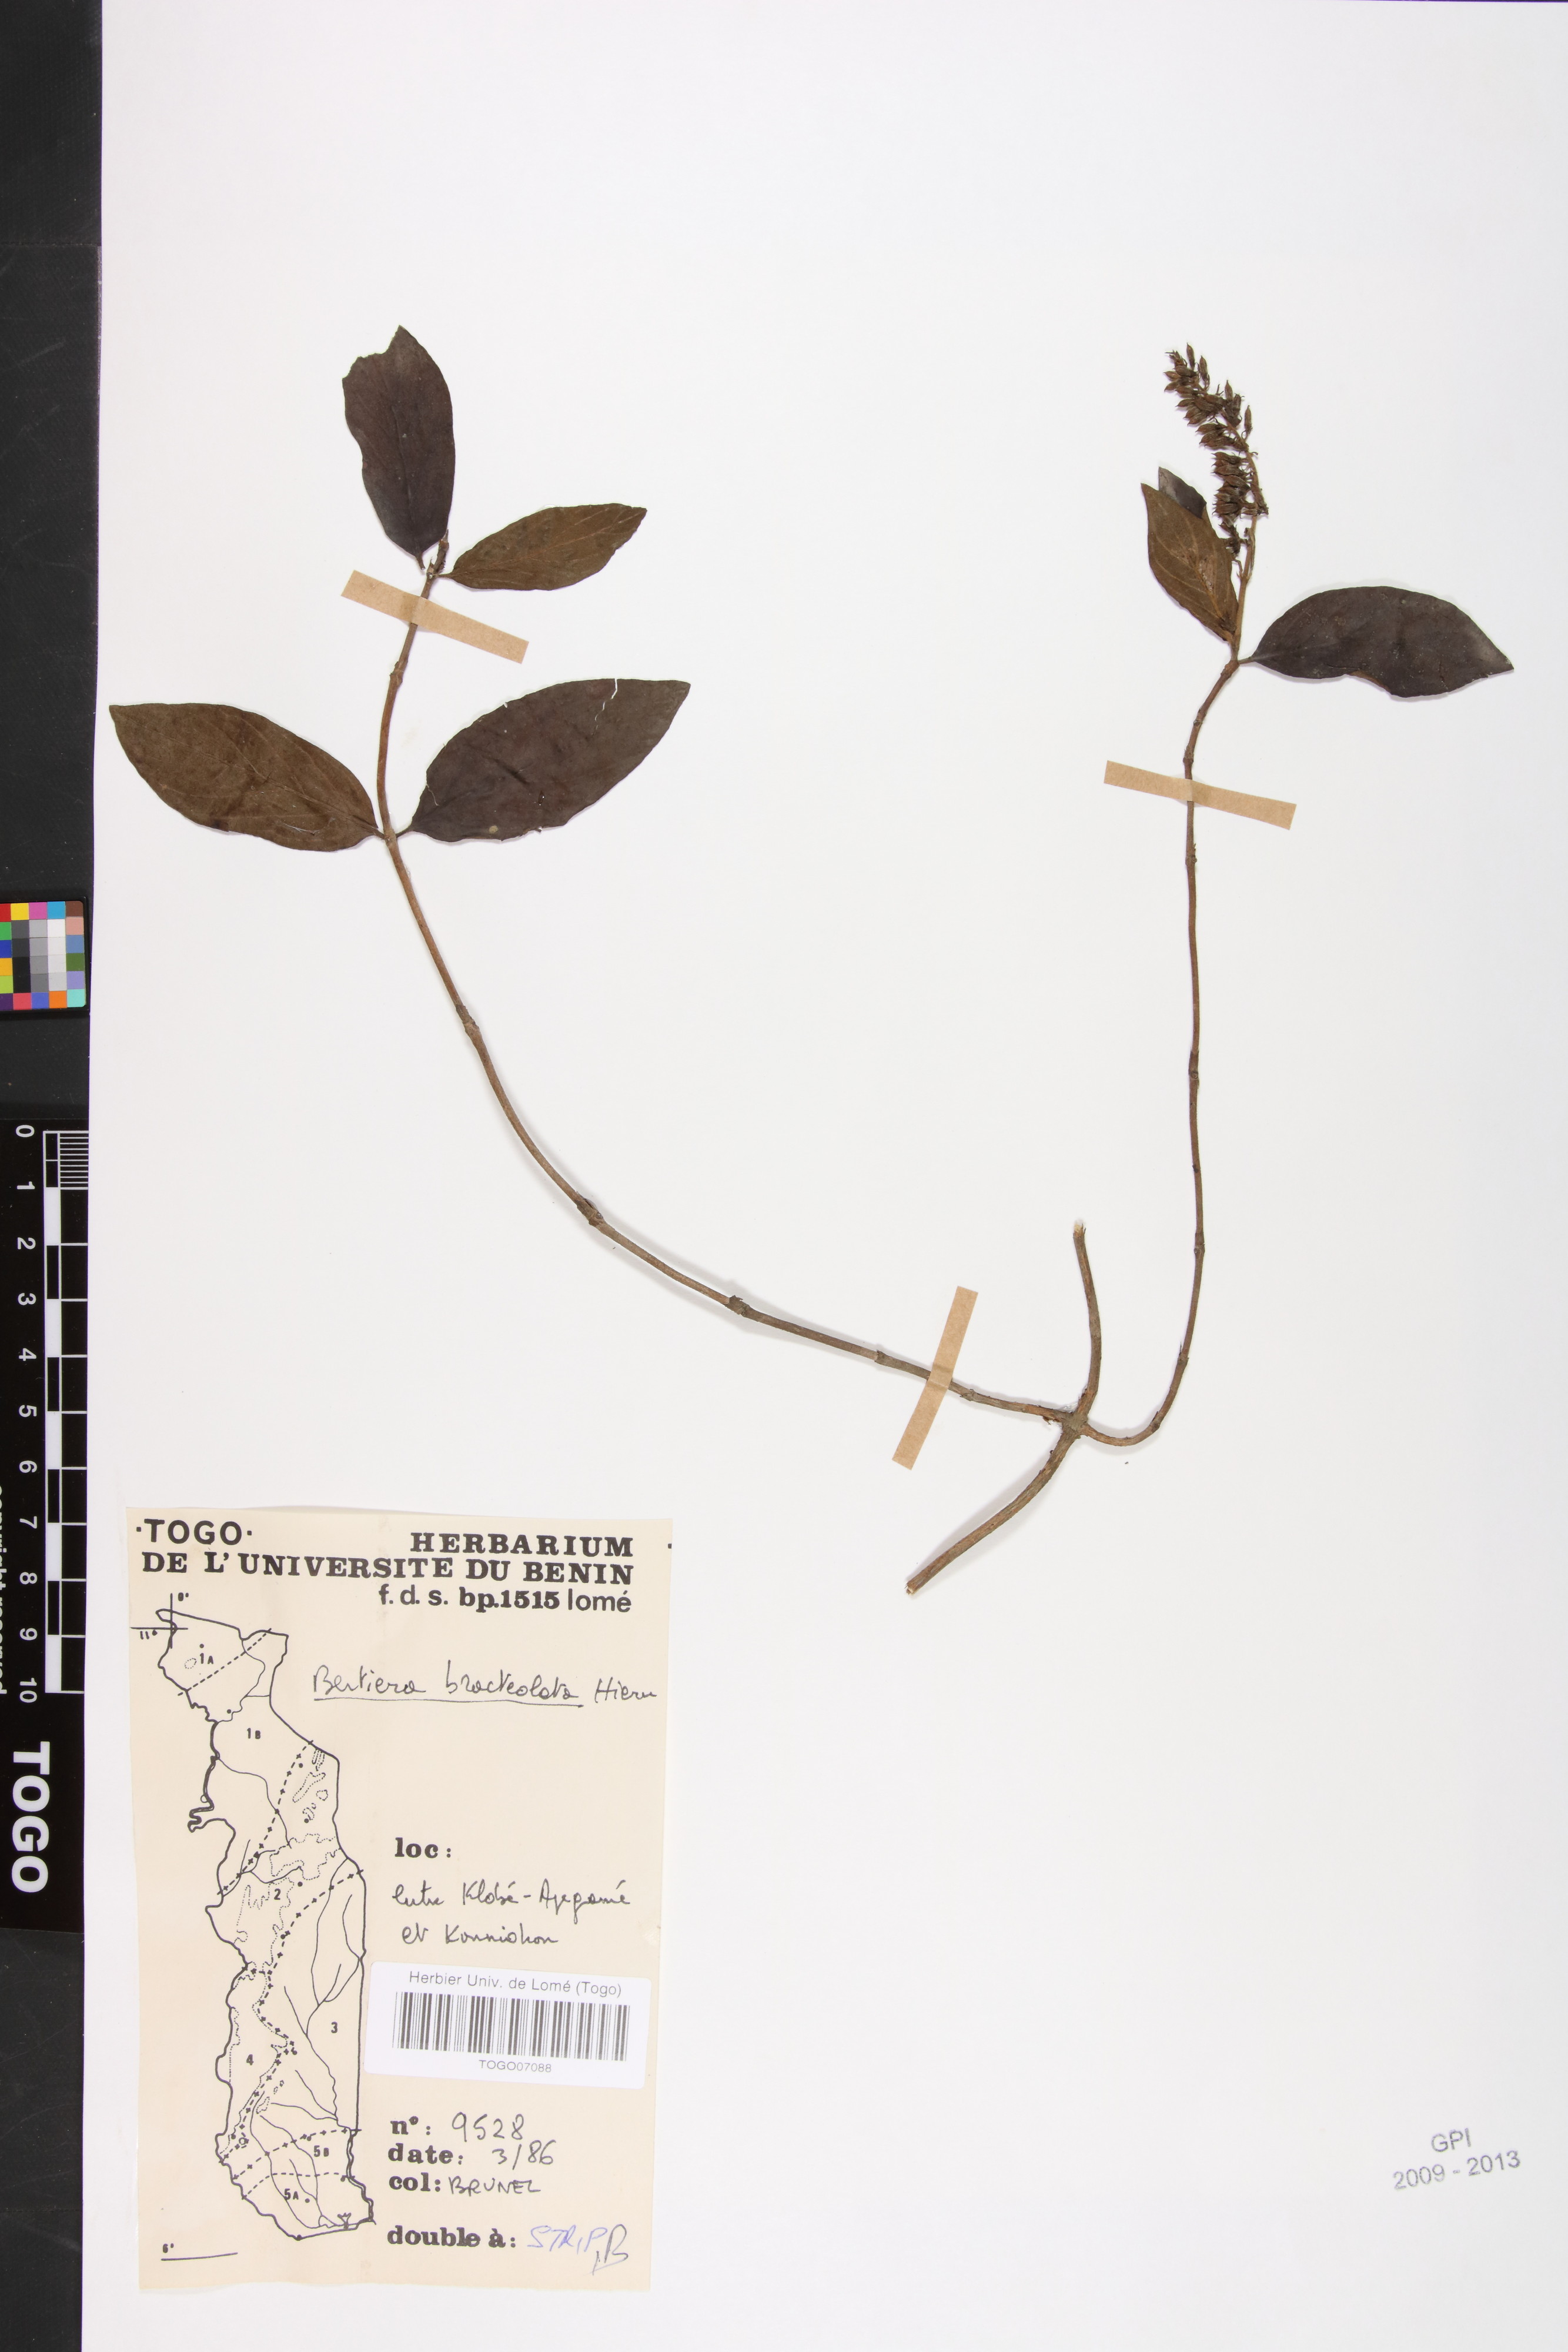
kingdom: Plantae
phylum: Tracheophyta
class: Magnoliopsida
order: Gentianales
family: Rubiaceae
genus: Bertiera
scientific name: Bertiera bracteolata
